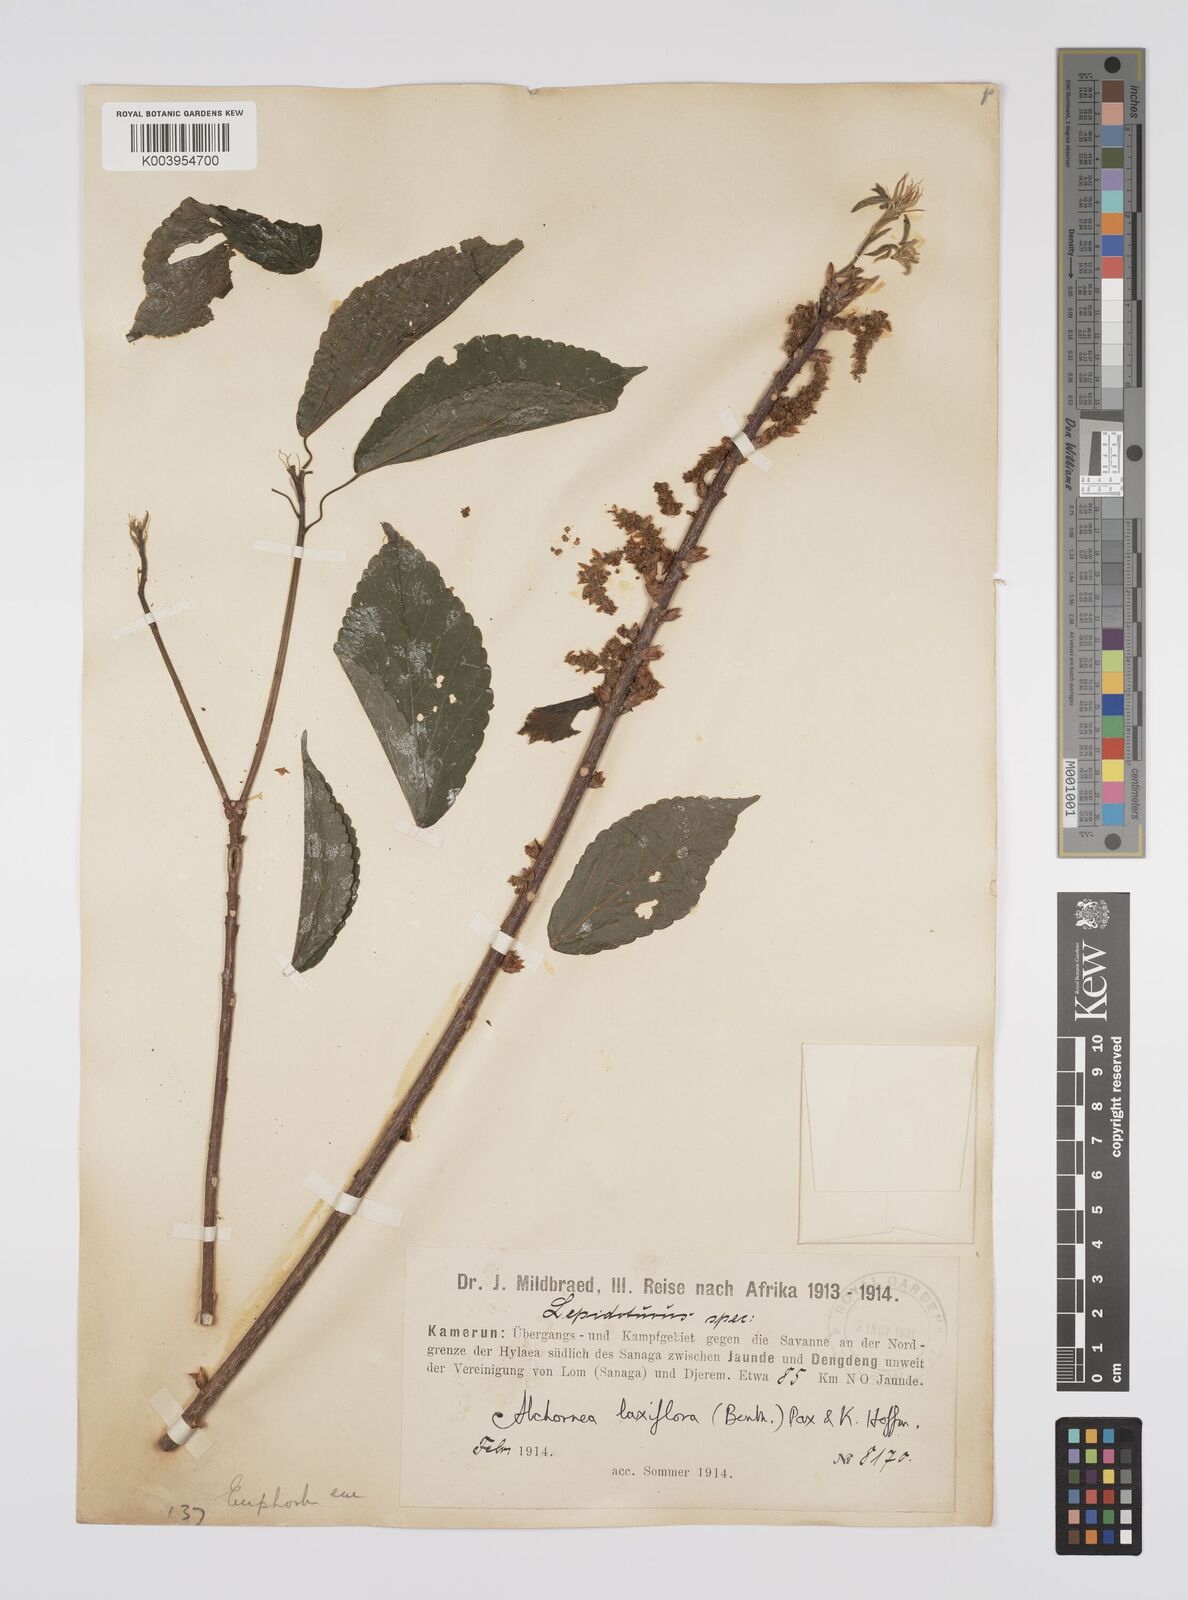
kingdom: Plantae
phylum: Tracheophyta
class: Magnoliopsida
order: Malpighiales
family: Euphorbiaceae
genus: Alchornea
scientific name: Alchornea laxiflora
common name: Lowveld bead-string
